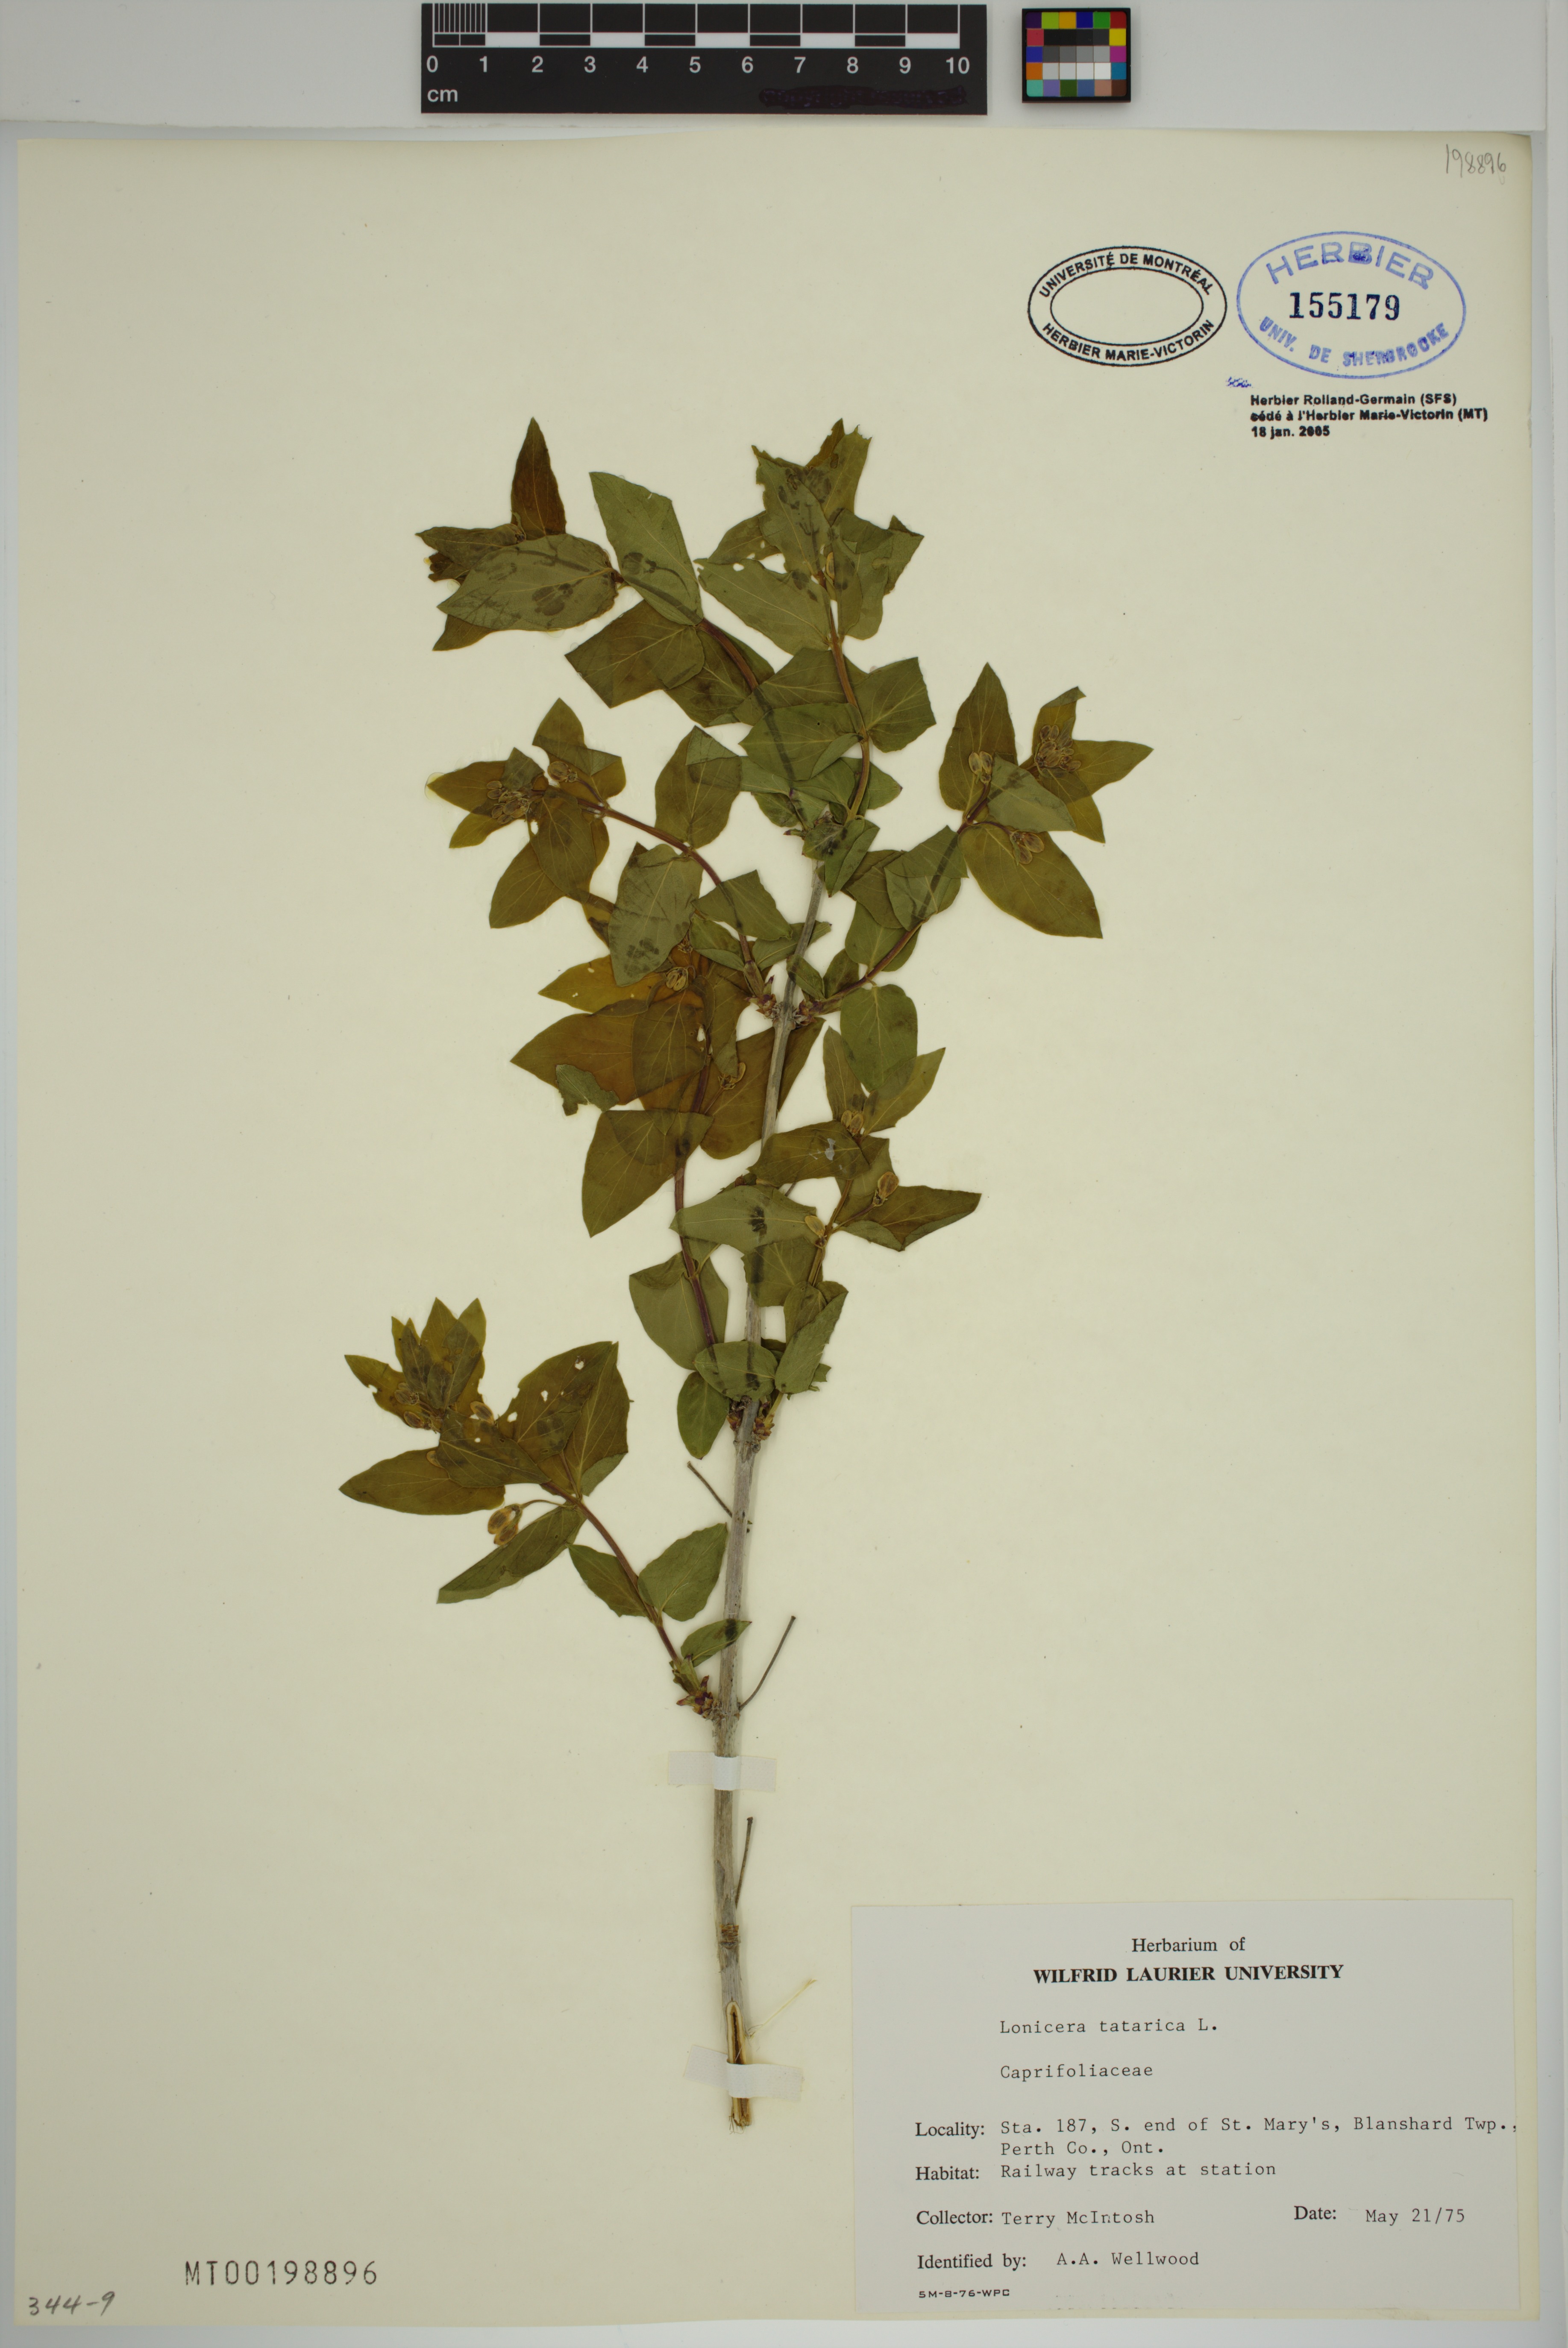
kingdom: Plantae
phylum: Tracheophyta
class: Magnoliopsida
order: Dipsacales
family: Caprifoliaceae
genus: Lonicera
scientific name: Lonicera tatarica
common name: Tatarian honeysuckle
